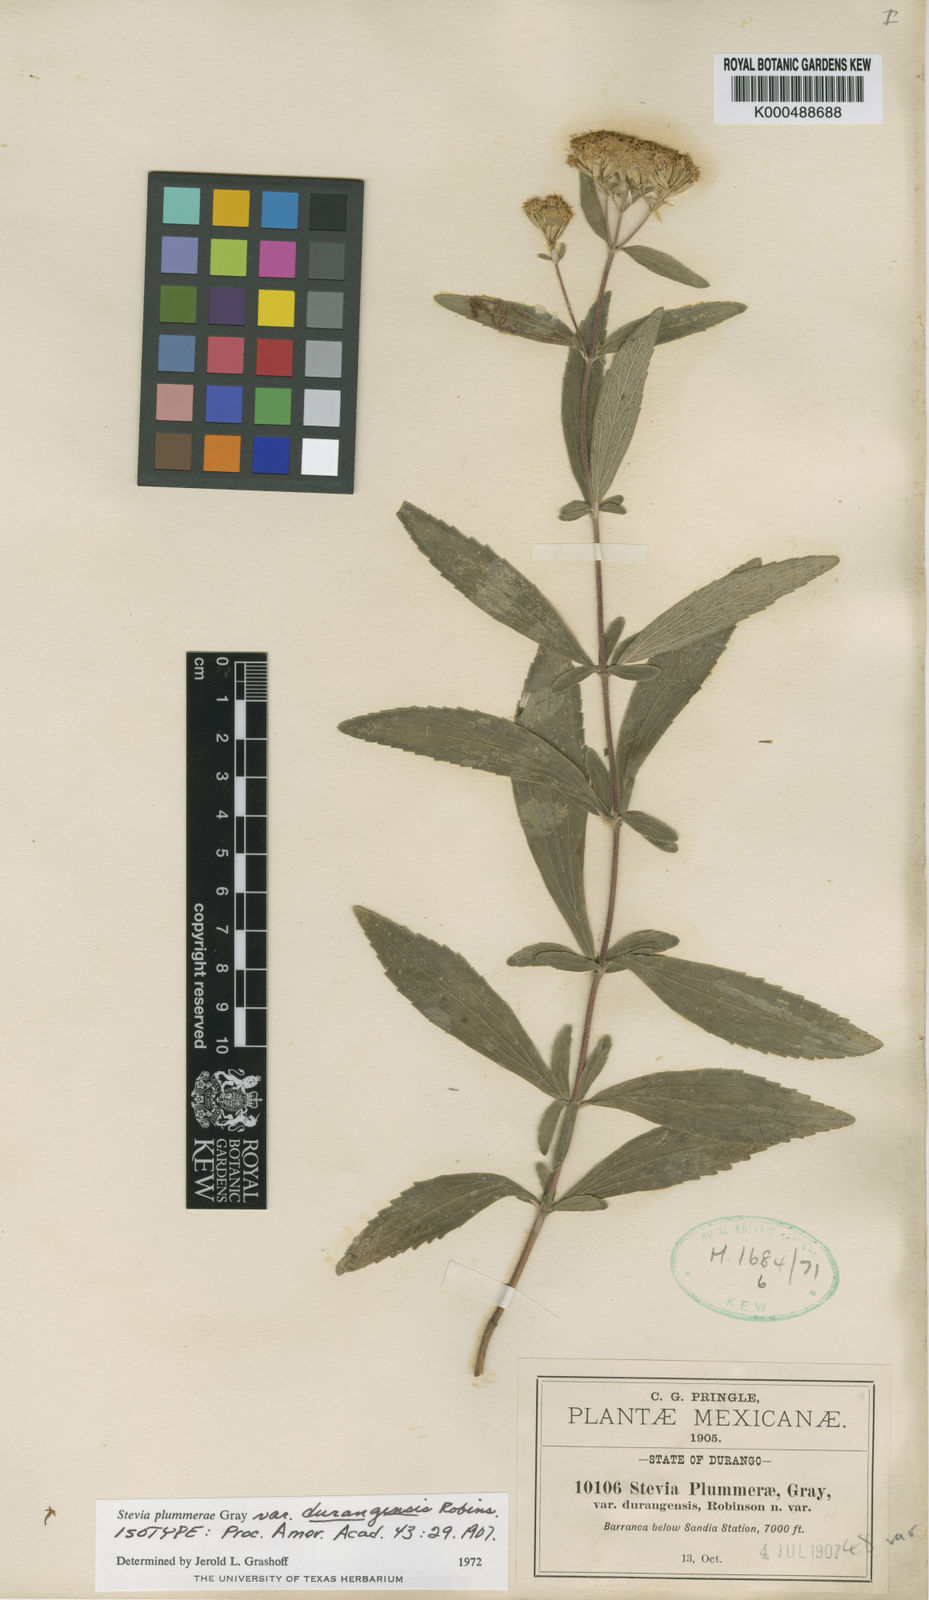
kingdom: Plantae
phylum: Tracheophyta
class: Magnoliopsida
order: Asterales
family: Asteraceae
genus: Stevia
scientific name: Stevia plummerae
